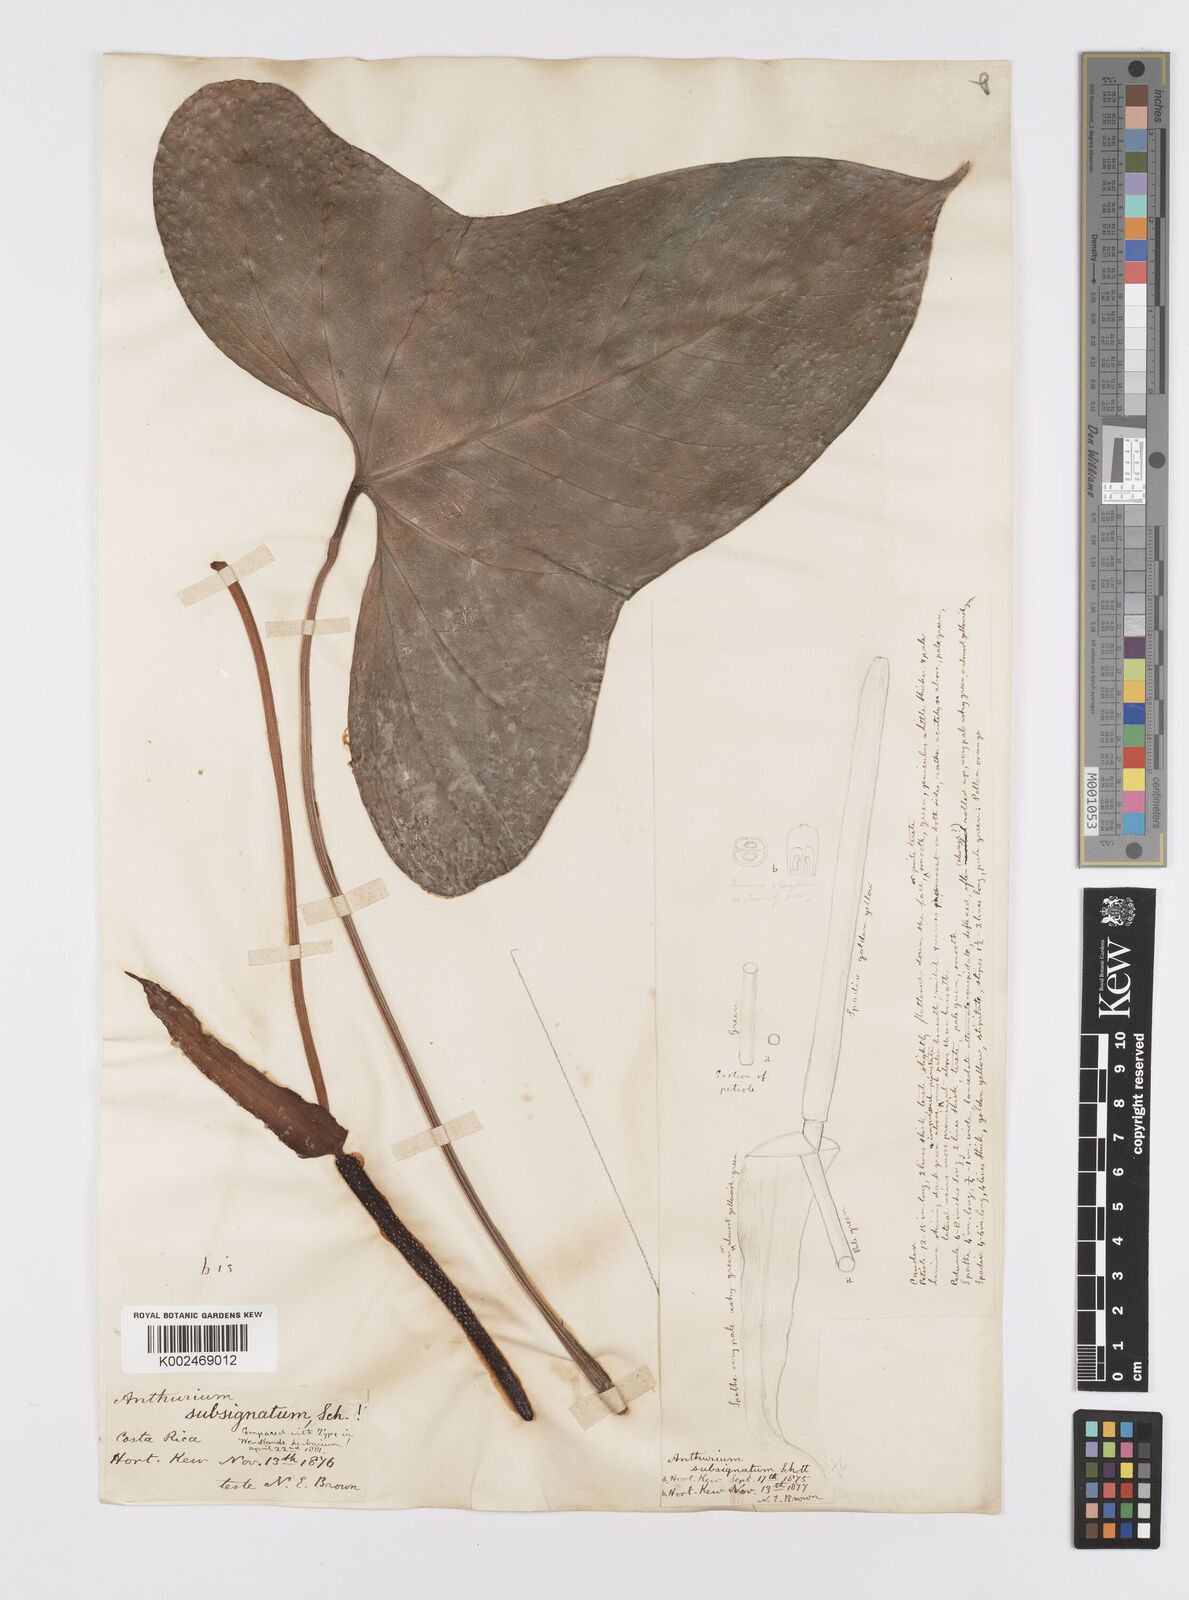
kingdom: Plantae
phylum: Tracheophyta
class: Liliopsida
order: Alismatales
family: Araceae
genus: Anthurium
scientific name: Anthurium subsignatum
